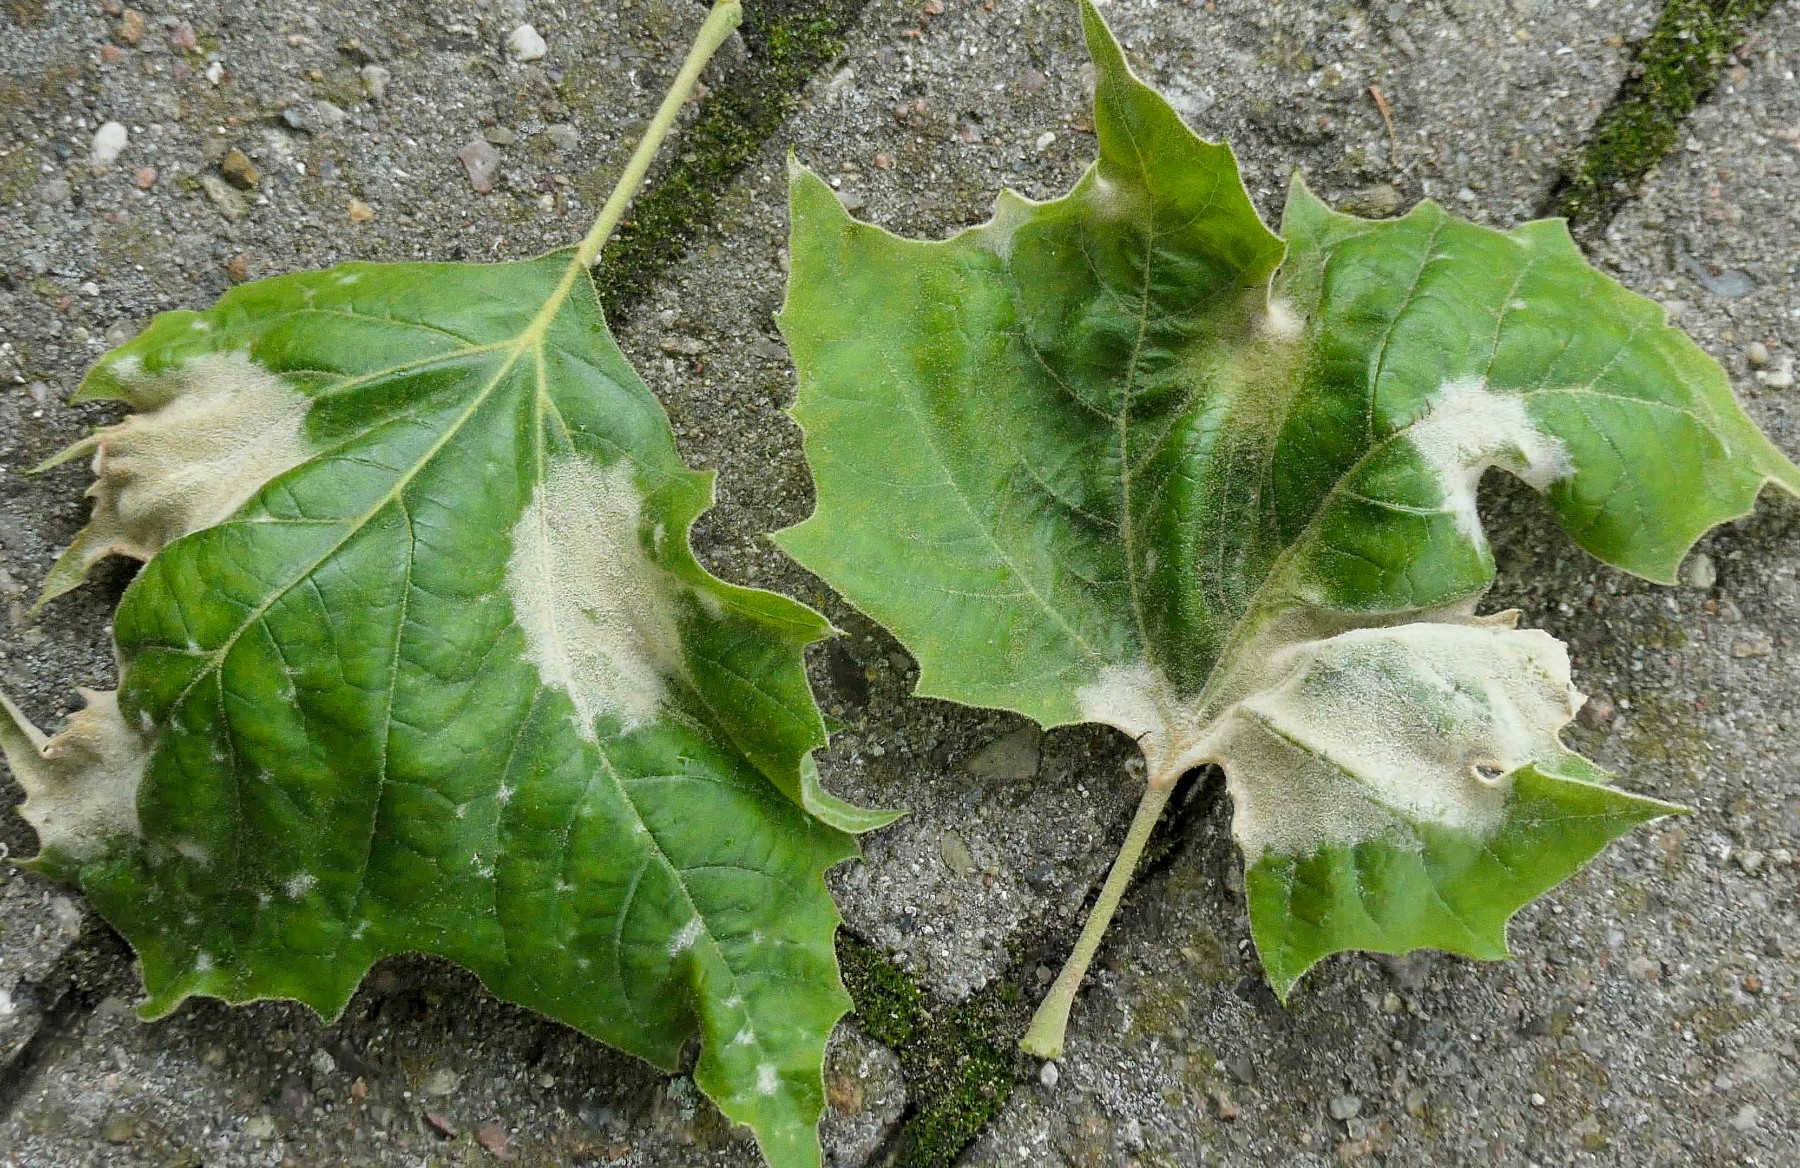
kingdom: Fungi
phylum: Ascomycota
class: Leotiomycetes
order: Helotiales
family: Erysiphaceae
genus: Erysiphe
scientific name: Erysiphe platani
